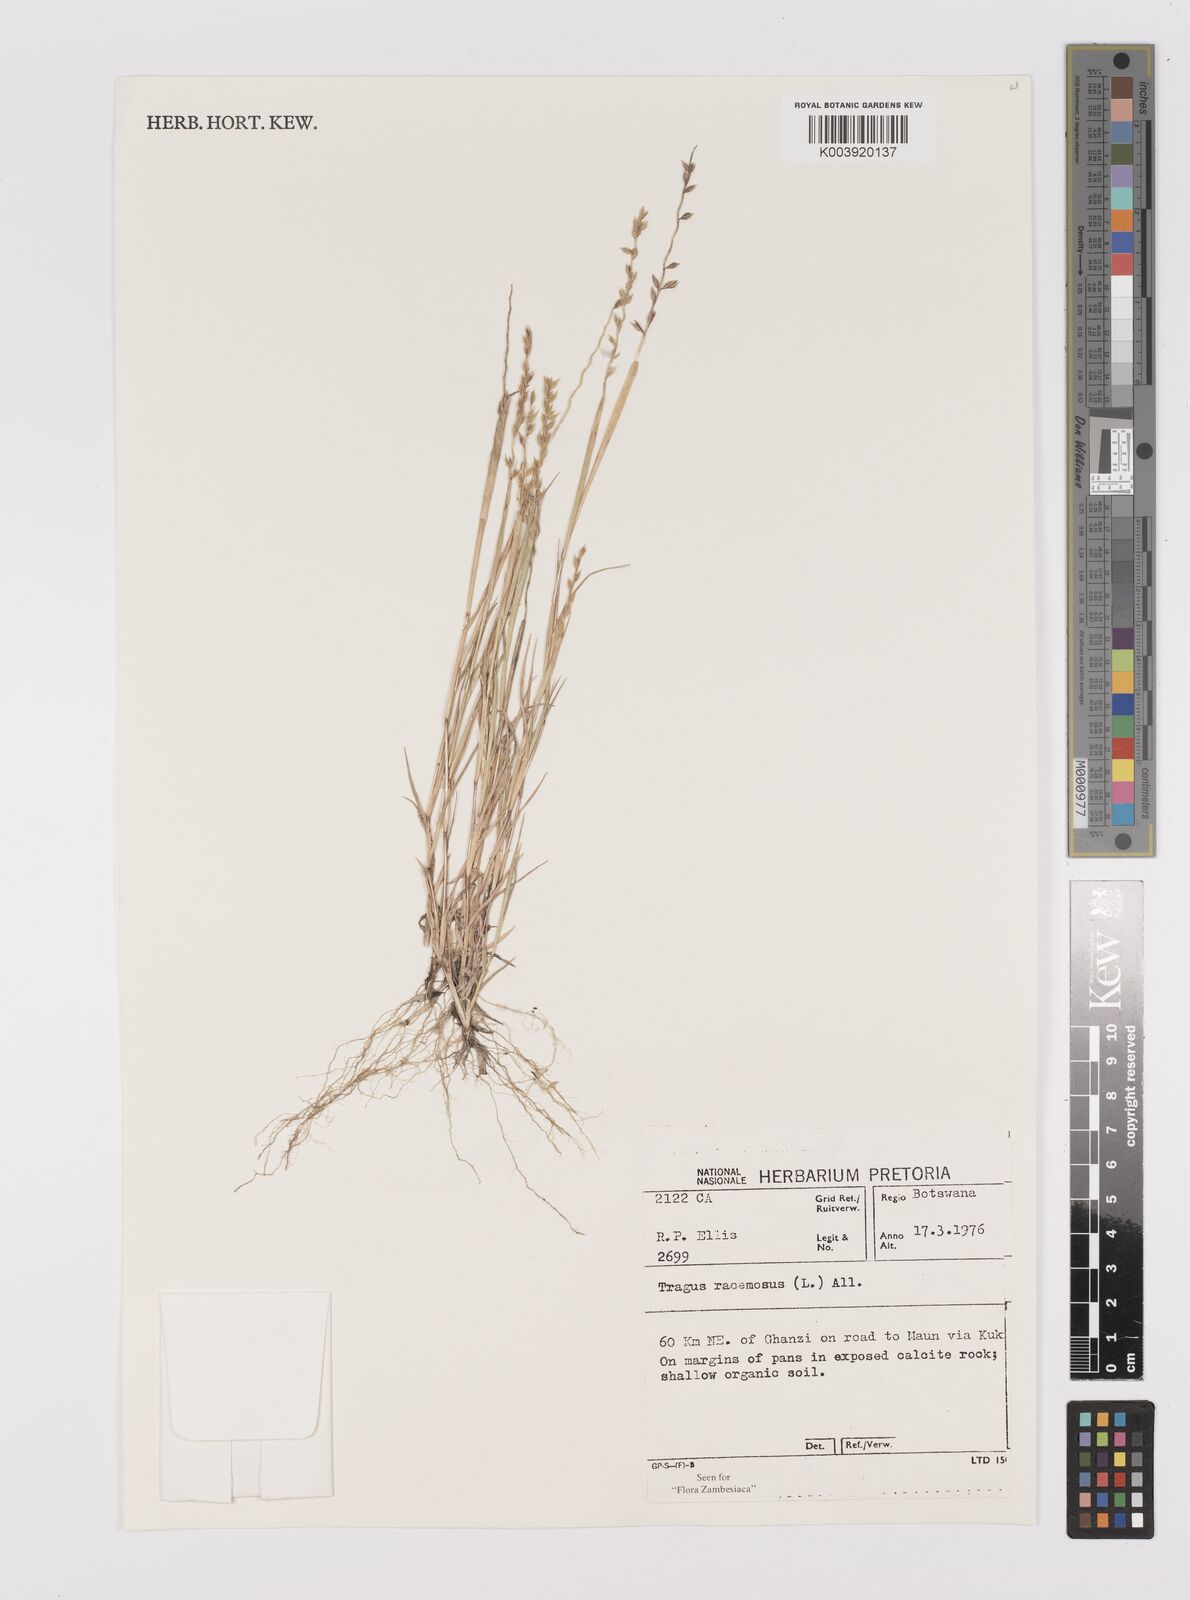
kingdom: Plantae
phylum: Tracheophyta
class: Liliopsida
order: Poales
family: Poaceae
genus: Tragus
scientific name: Tragus racemosus
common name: European bur-grass
